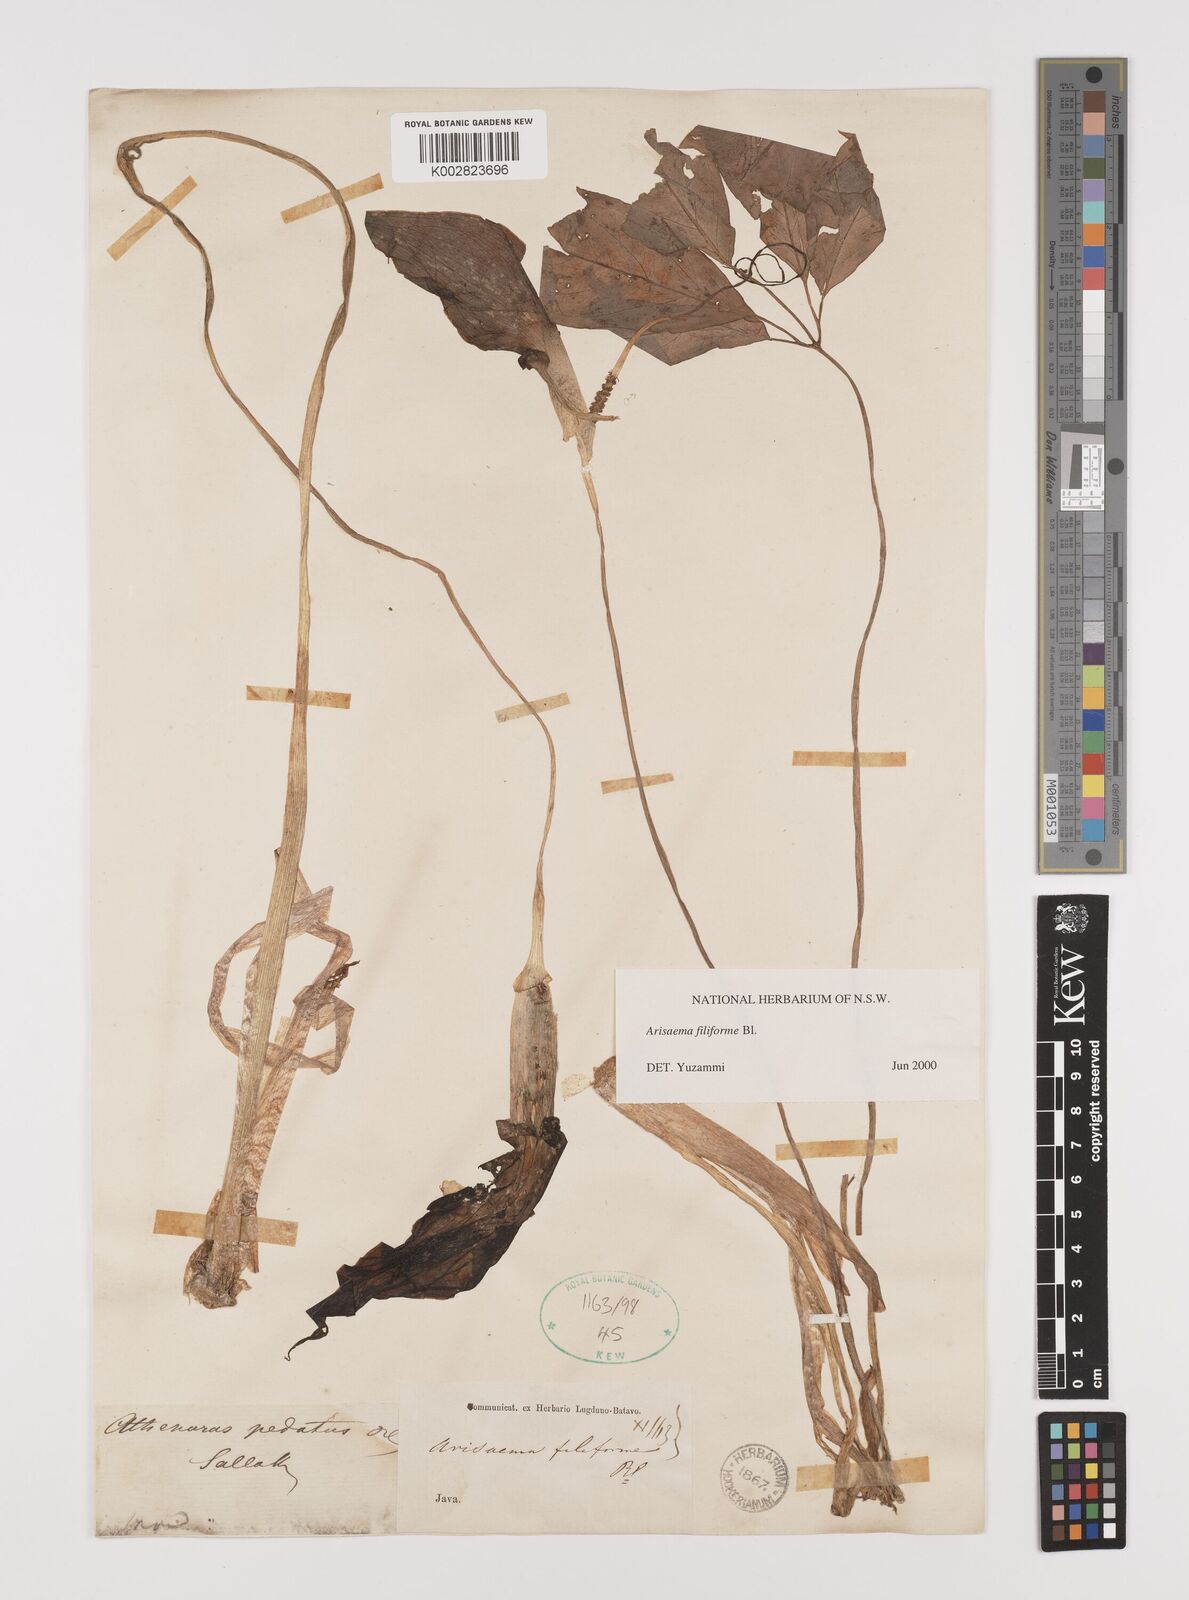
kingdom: Plantae
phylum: Tracheophyta
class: Liliopsida
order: Alismatales
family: Araceae
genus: Arisaema
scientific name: Arisaema filiforme
